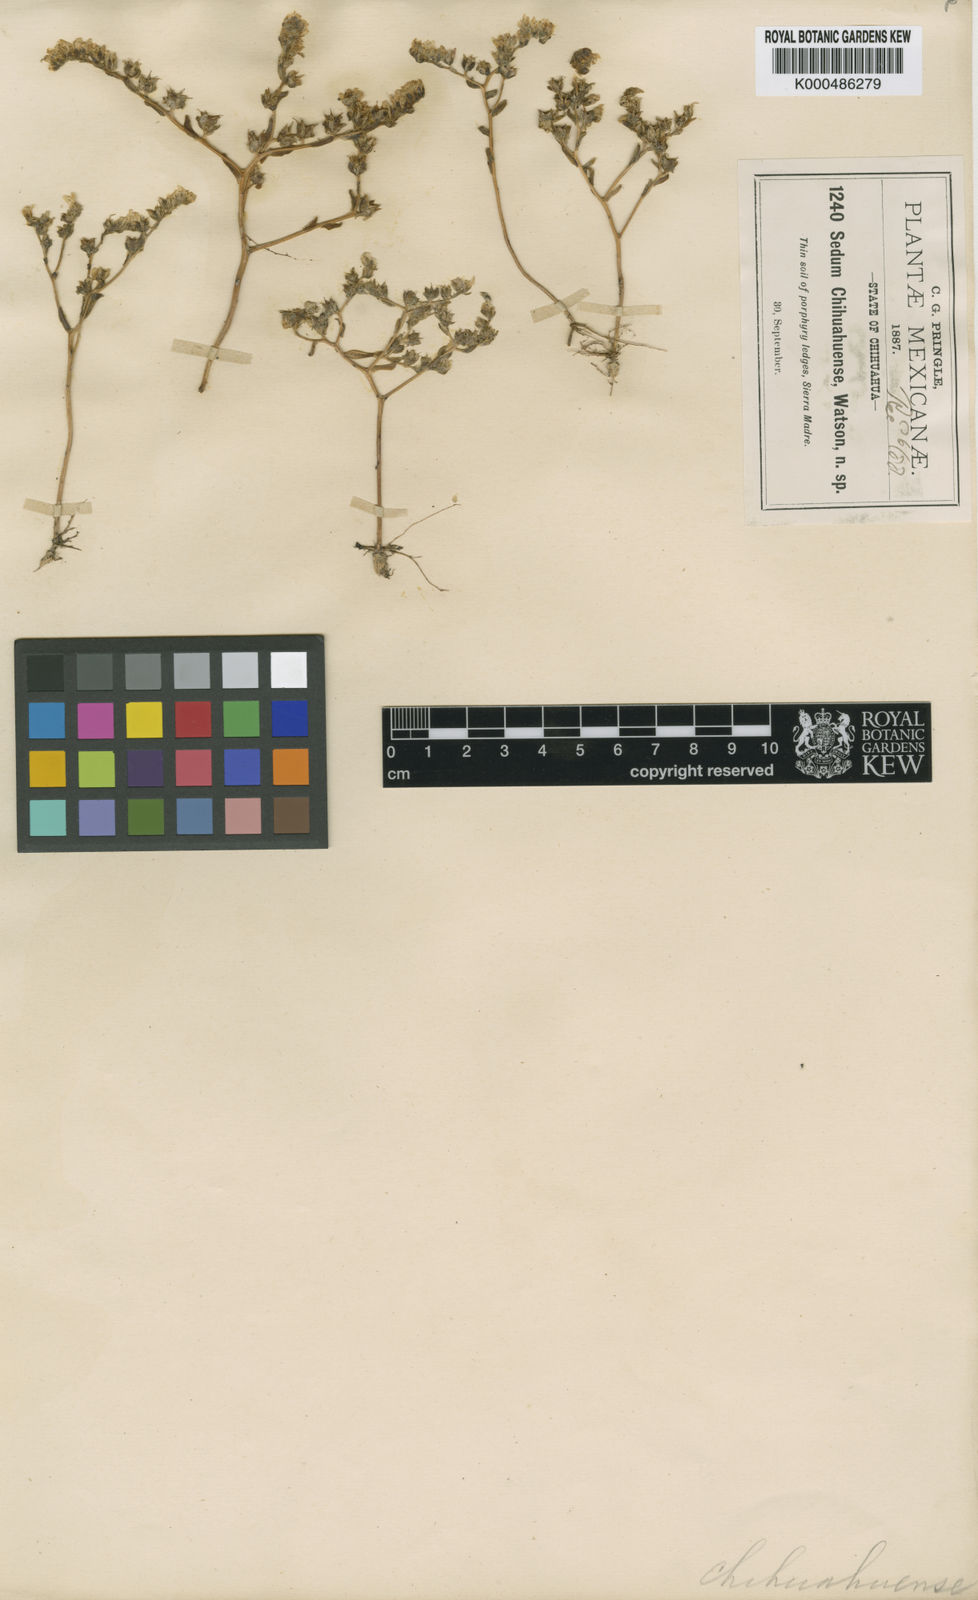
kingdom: Plantae
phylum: Tracheophyta
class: Magnoliopsida
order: Saxifragales
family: Crassulaceae
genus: Sedum
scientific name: Sedum chihuahuense
